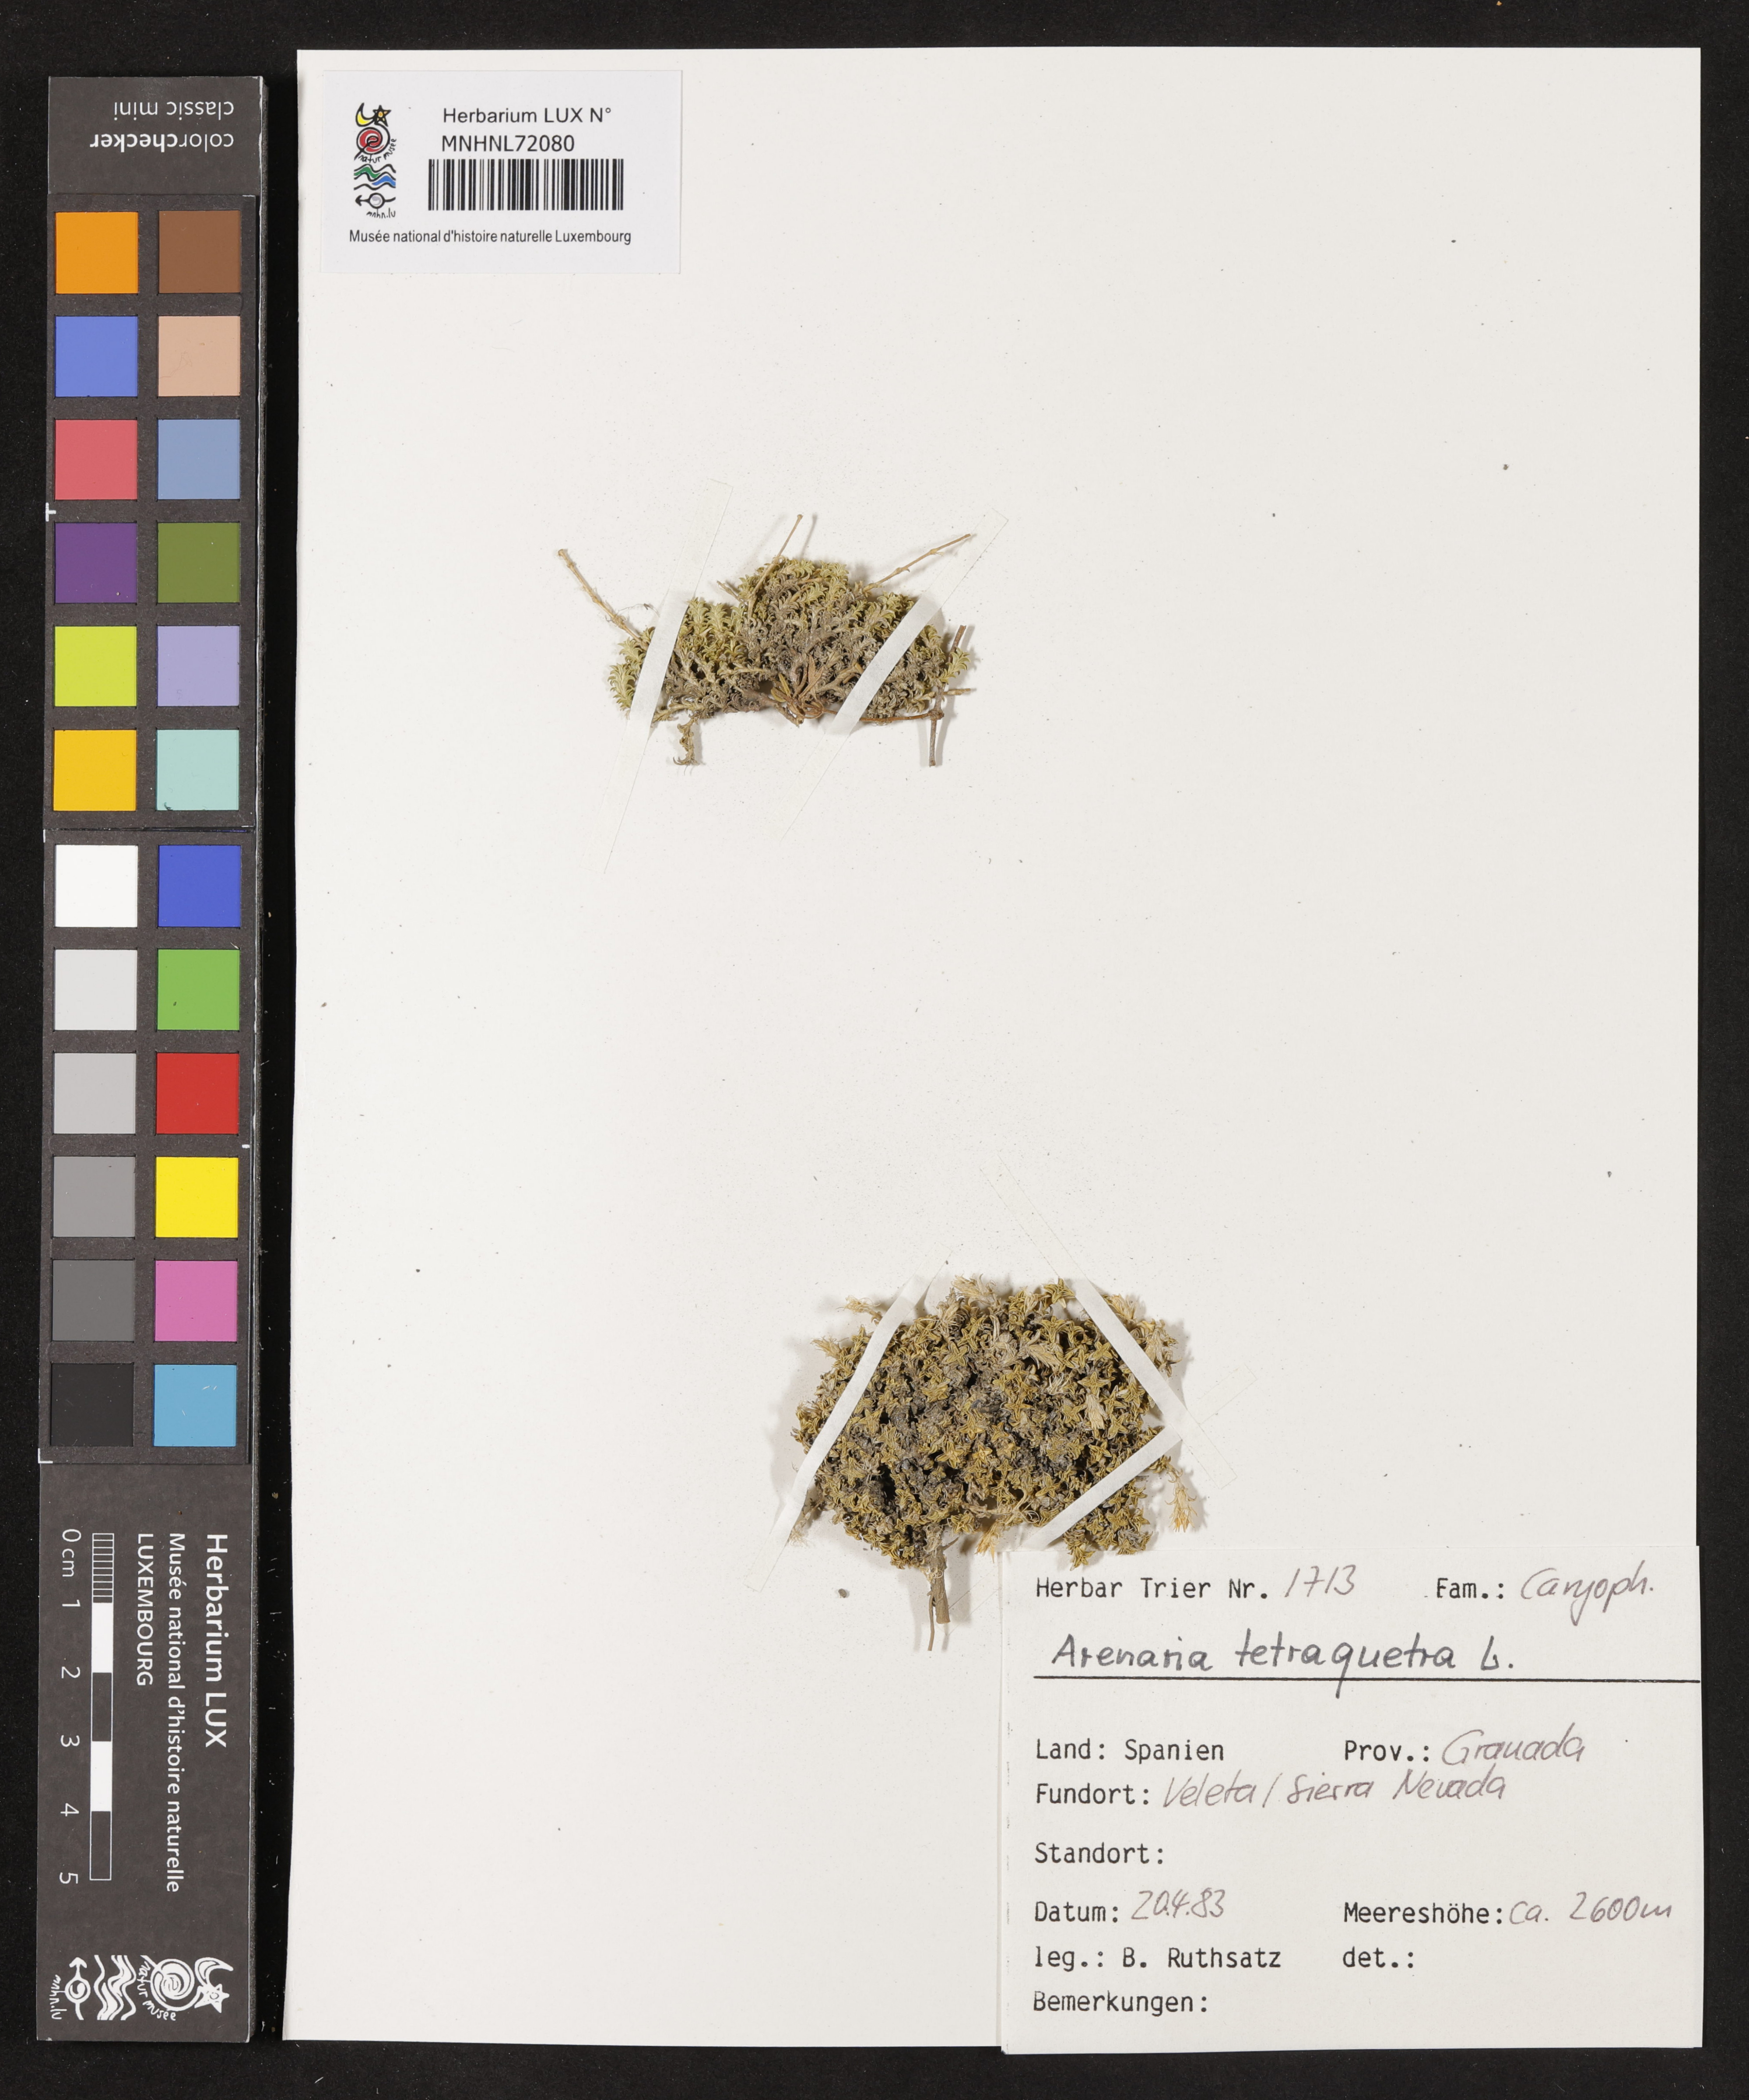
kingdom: Animalia
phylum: Chordata
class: Aves
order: Charadriiformes
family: Scolopacidae
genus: Arenaria
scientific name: Arenaria
